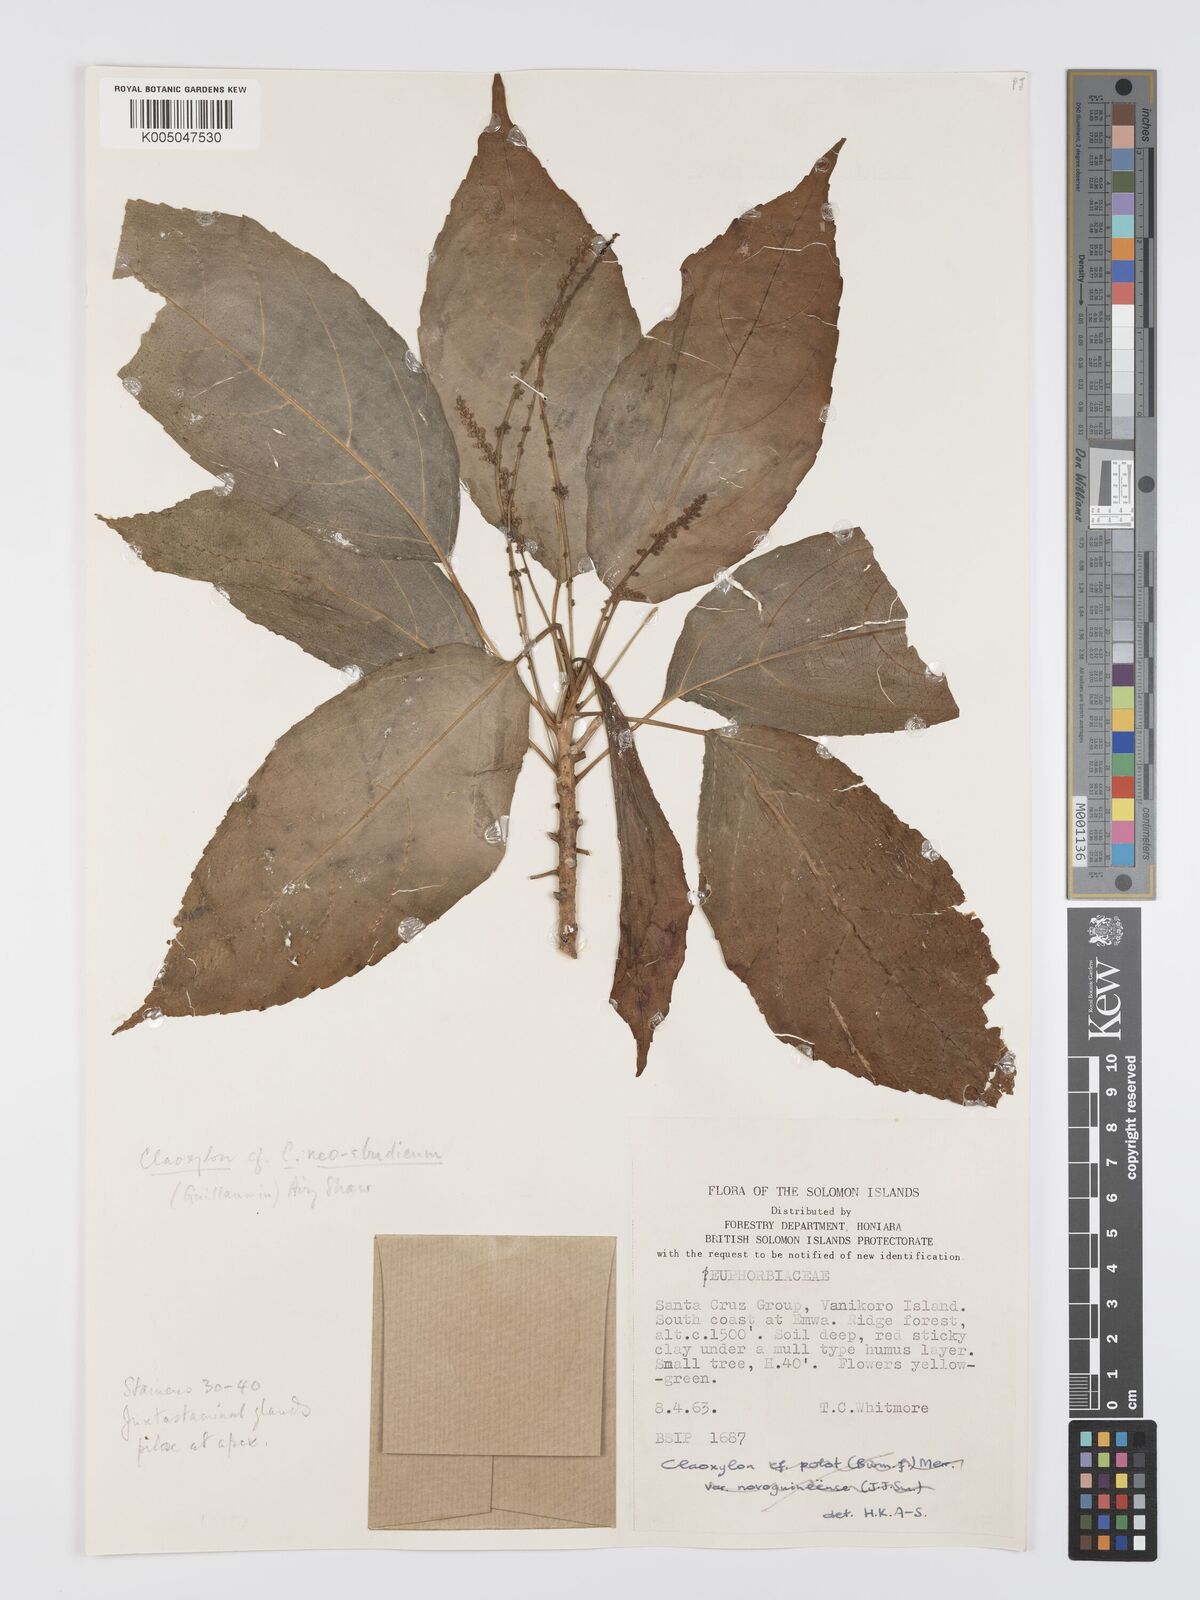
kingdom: Plantae
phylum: Tracheophyta
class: Magnoliopsida
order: Malpighiales
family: Euphorbiaceae
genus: Claoxylon
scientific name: Claoxylon neoebudicum
